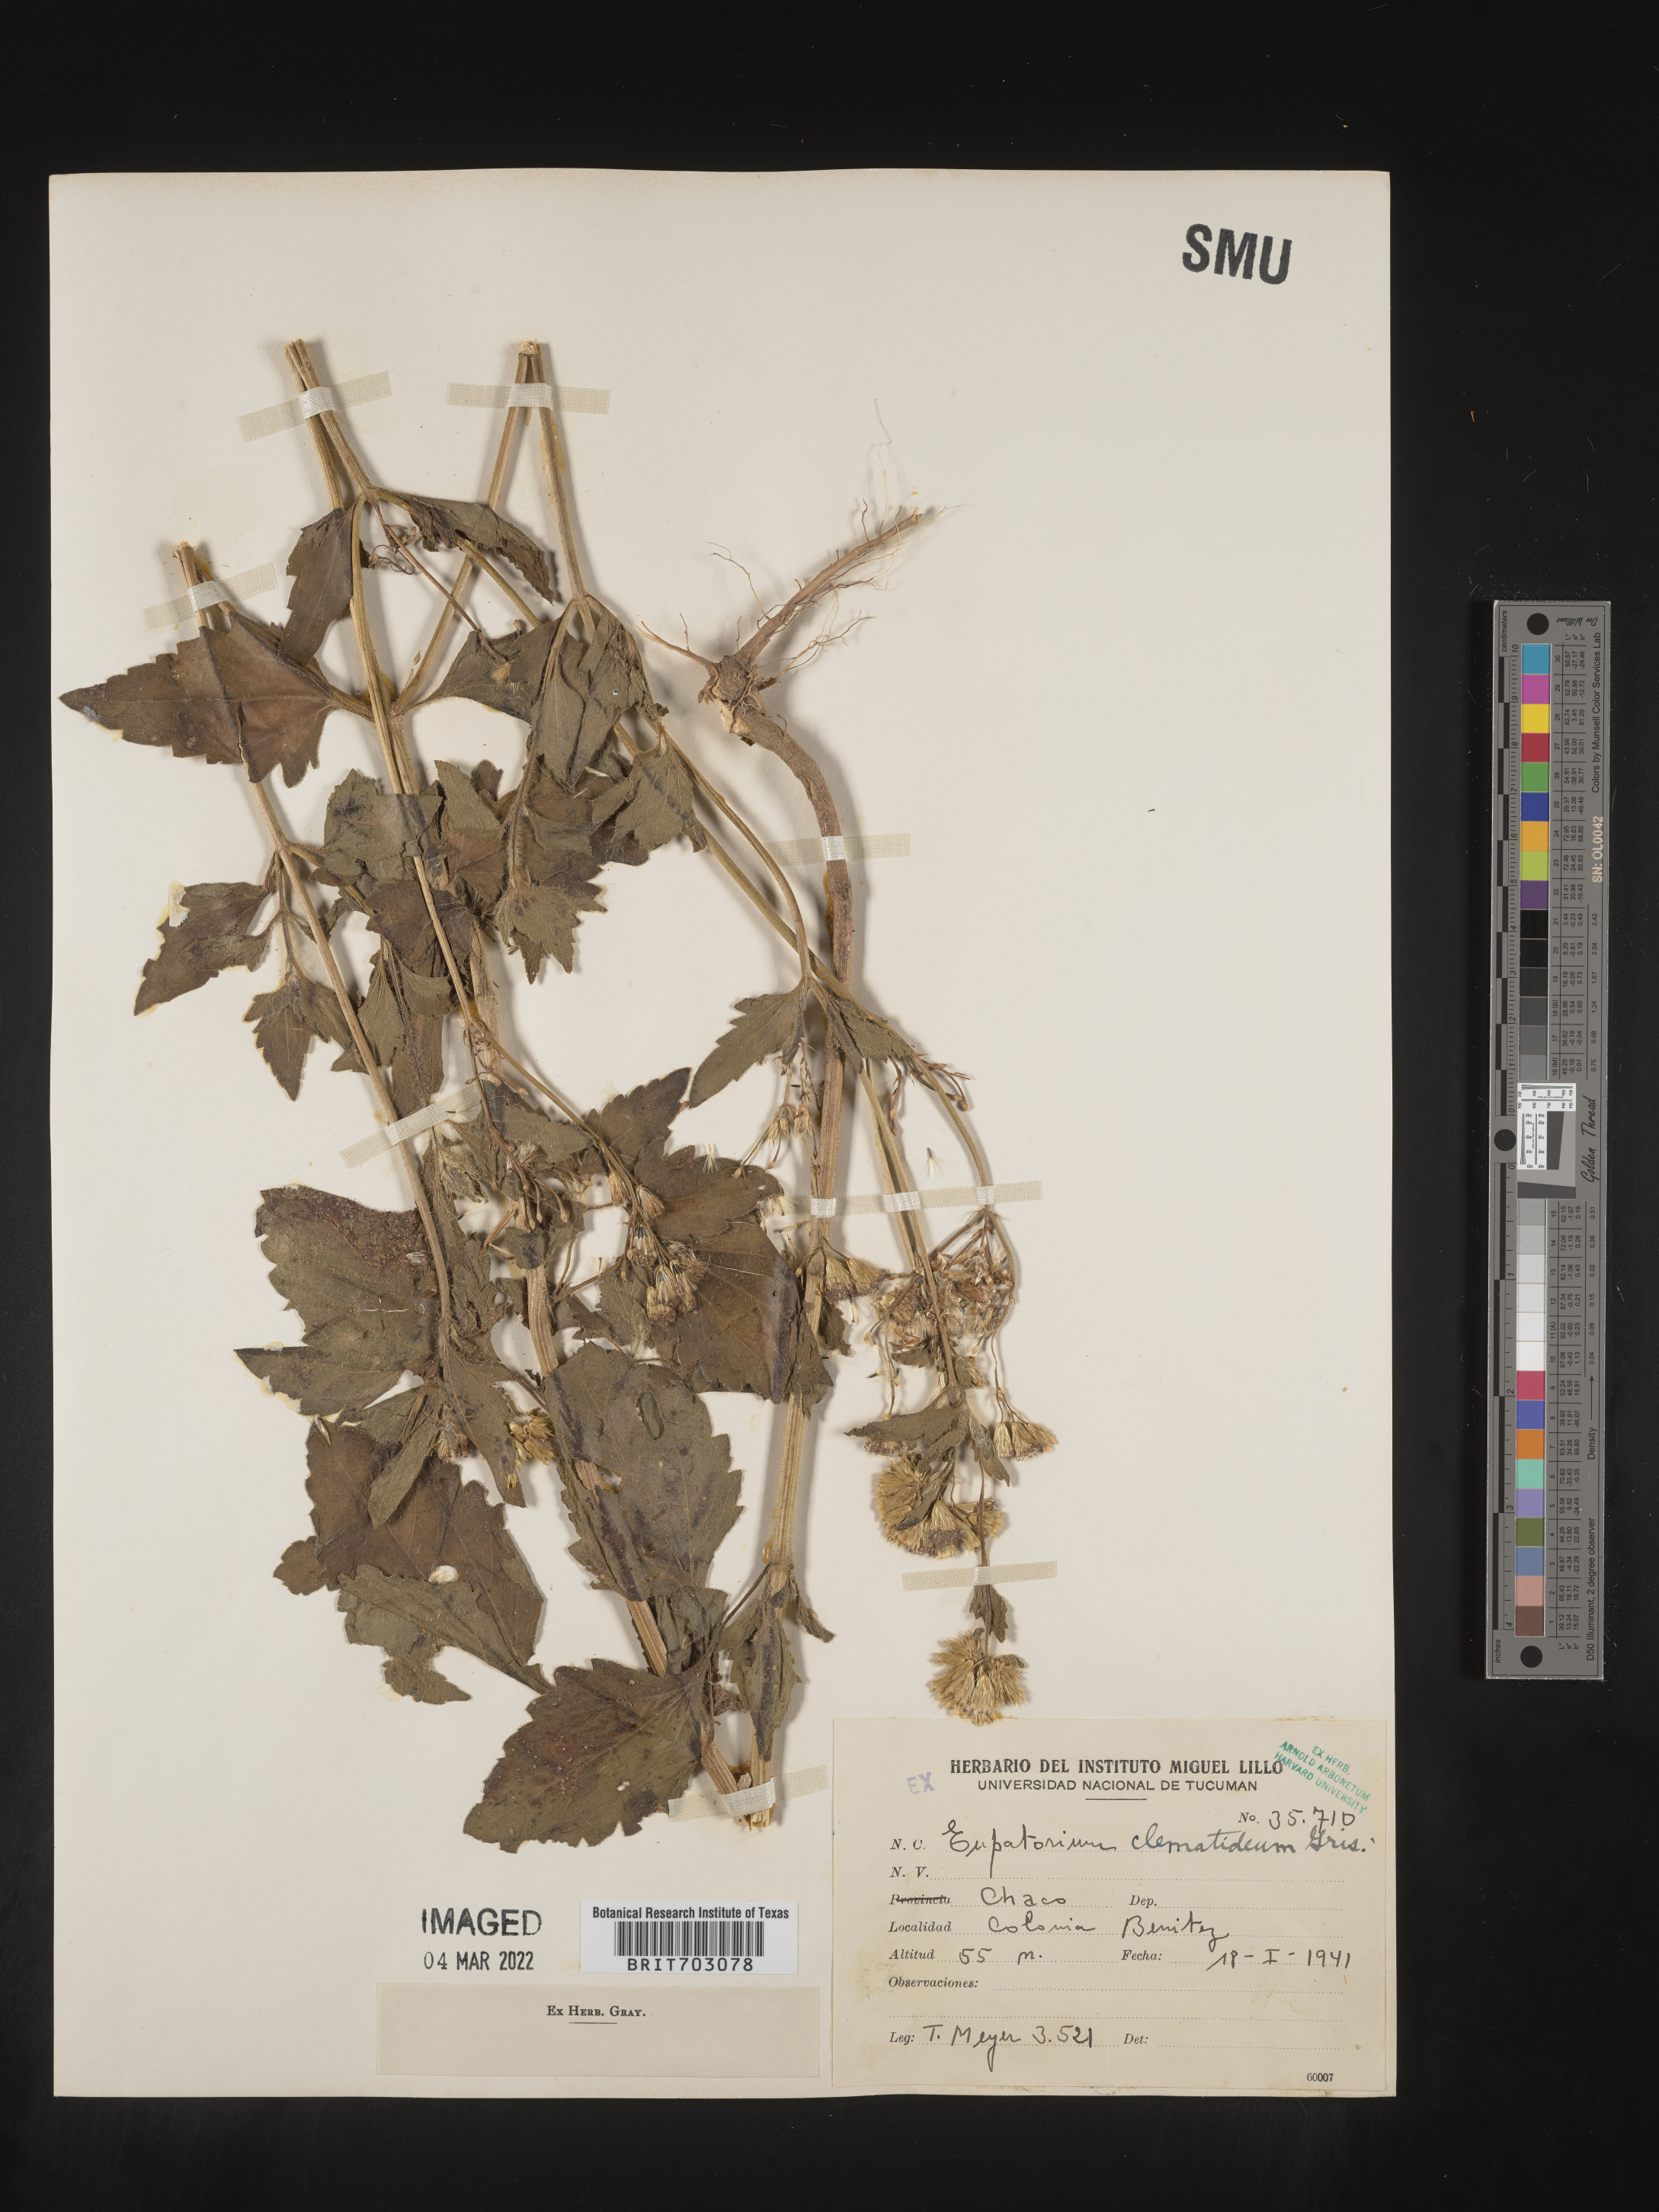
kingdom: Plantae
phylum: Tracheophyta
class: Magnoliopsida
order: Asterales
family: Asteraceae
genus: Eupatorium
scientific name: Eupatorium
